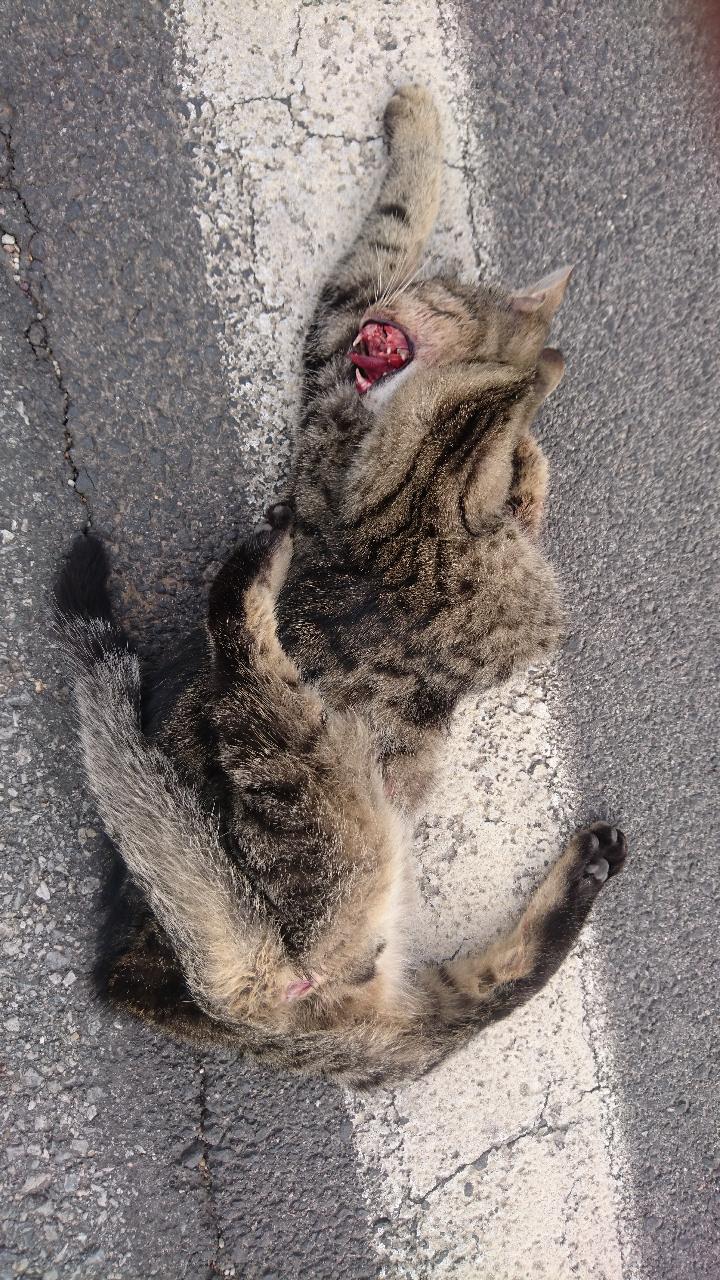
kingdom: Animalia
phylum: Chordata
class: Mammalia
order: Carnivora
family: Felidae
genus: Felis
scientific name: Felis catus
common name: Domestic cat
